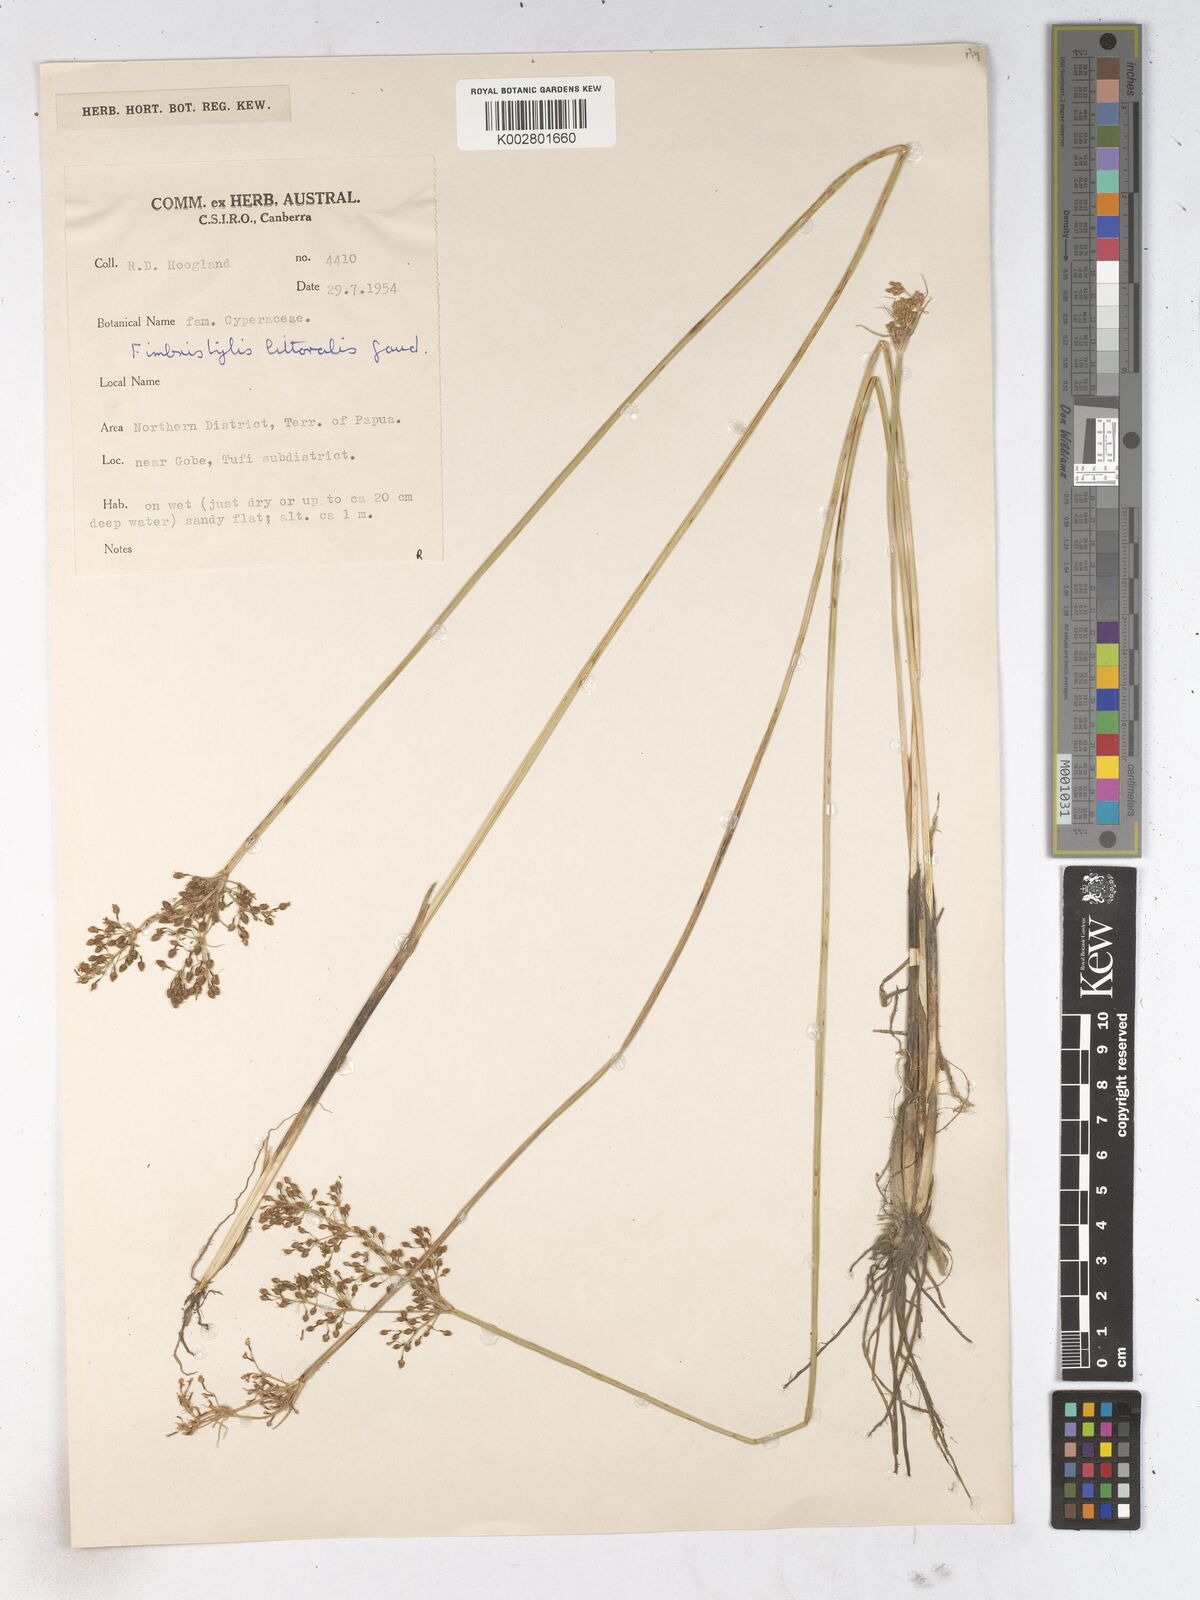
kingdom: Plantae
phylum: Tracheophyta
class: Liliopsida
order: Poales
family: Cyperaceae
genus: Fimbristylis
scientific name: Fimbristylis littoralis
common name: Fimbry
